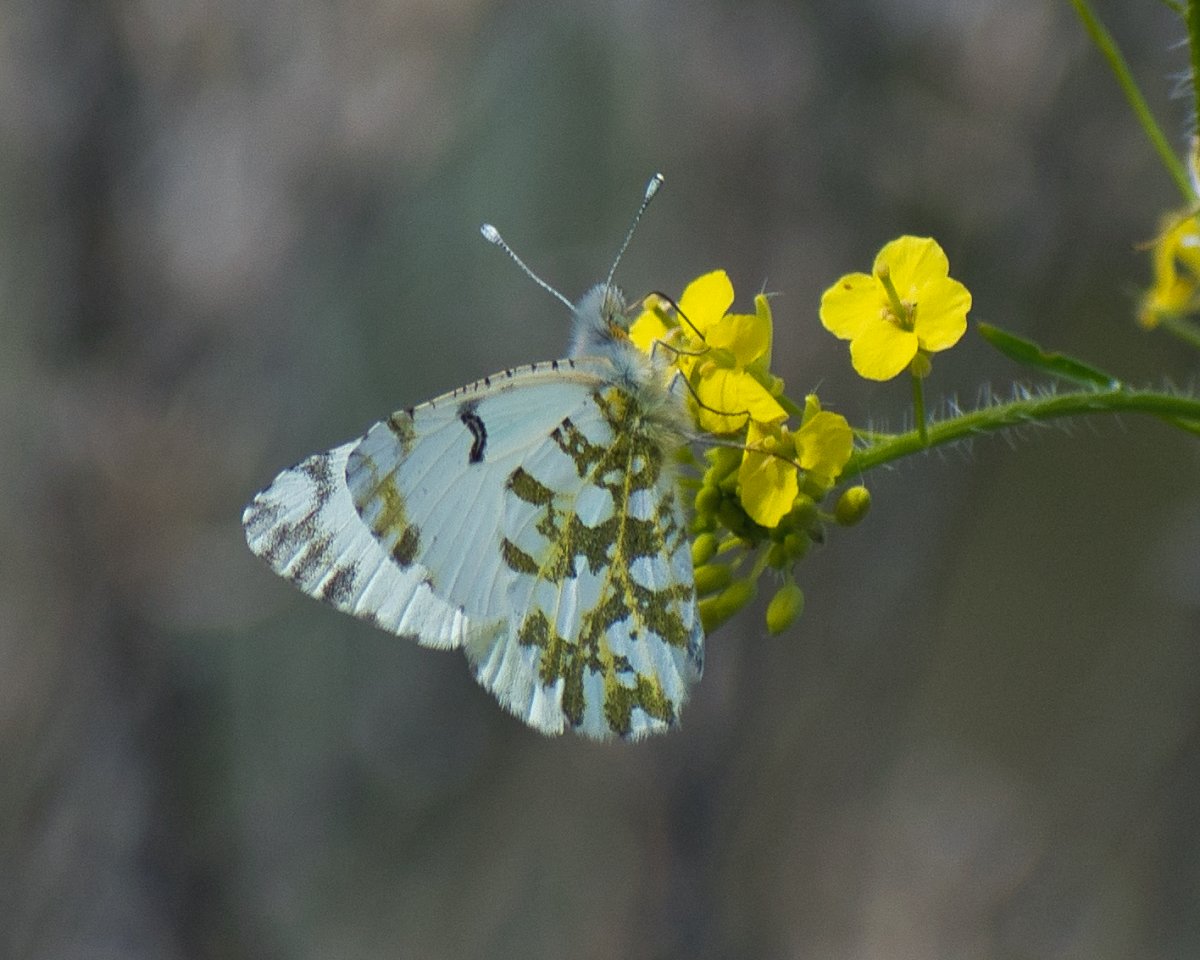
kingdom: Animalia
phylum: Arthropoda
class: Insecta
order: Lepidoptera
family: Pieridae
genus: Euchloe
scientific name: Euchloe ausonides
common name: Large Marble
